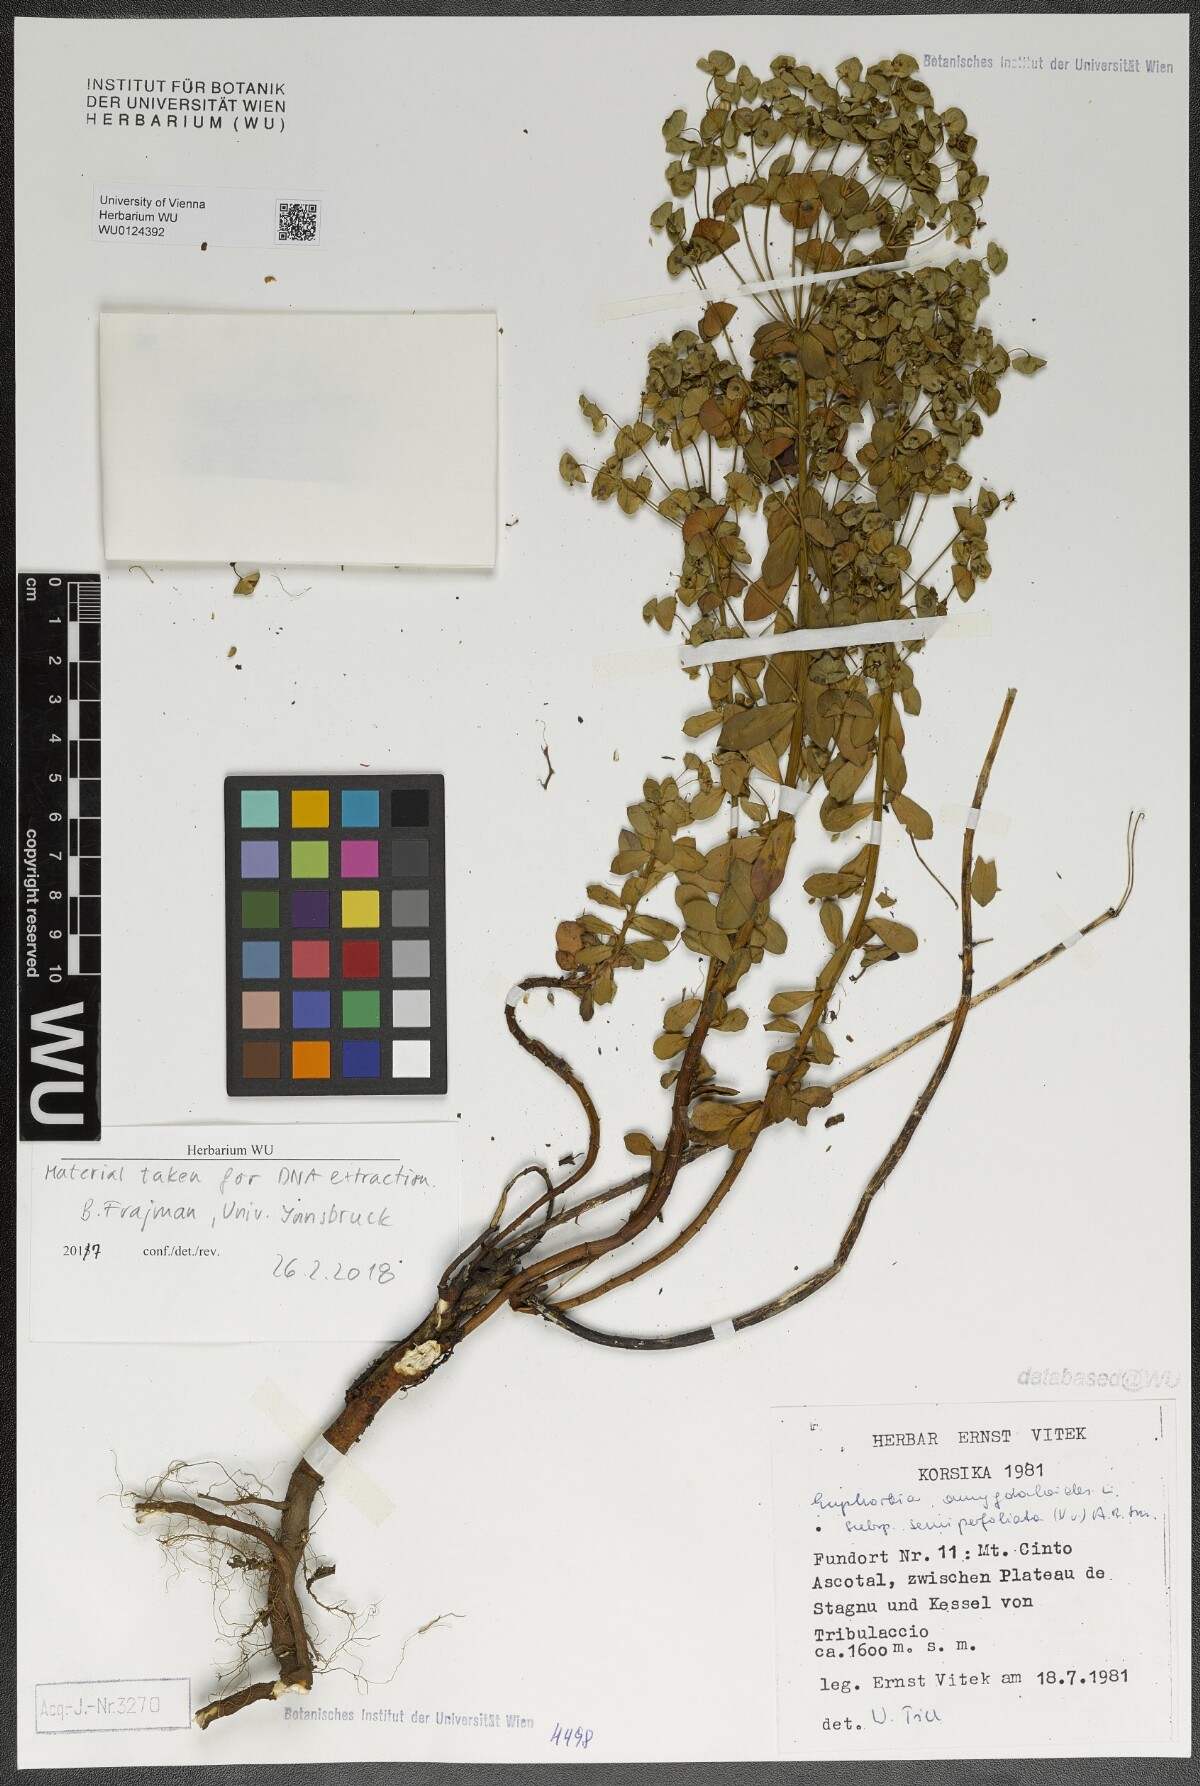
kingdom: Plantae
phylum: Tracheophyta
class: Magnoliopsida
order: Malpighiales
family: Euphorbiaceae
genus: Euphorbia
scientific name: Euphorbia semiperfoliata
